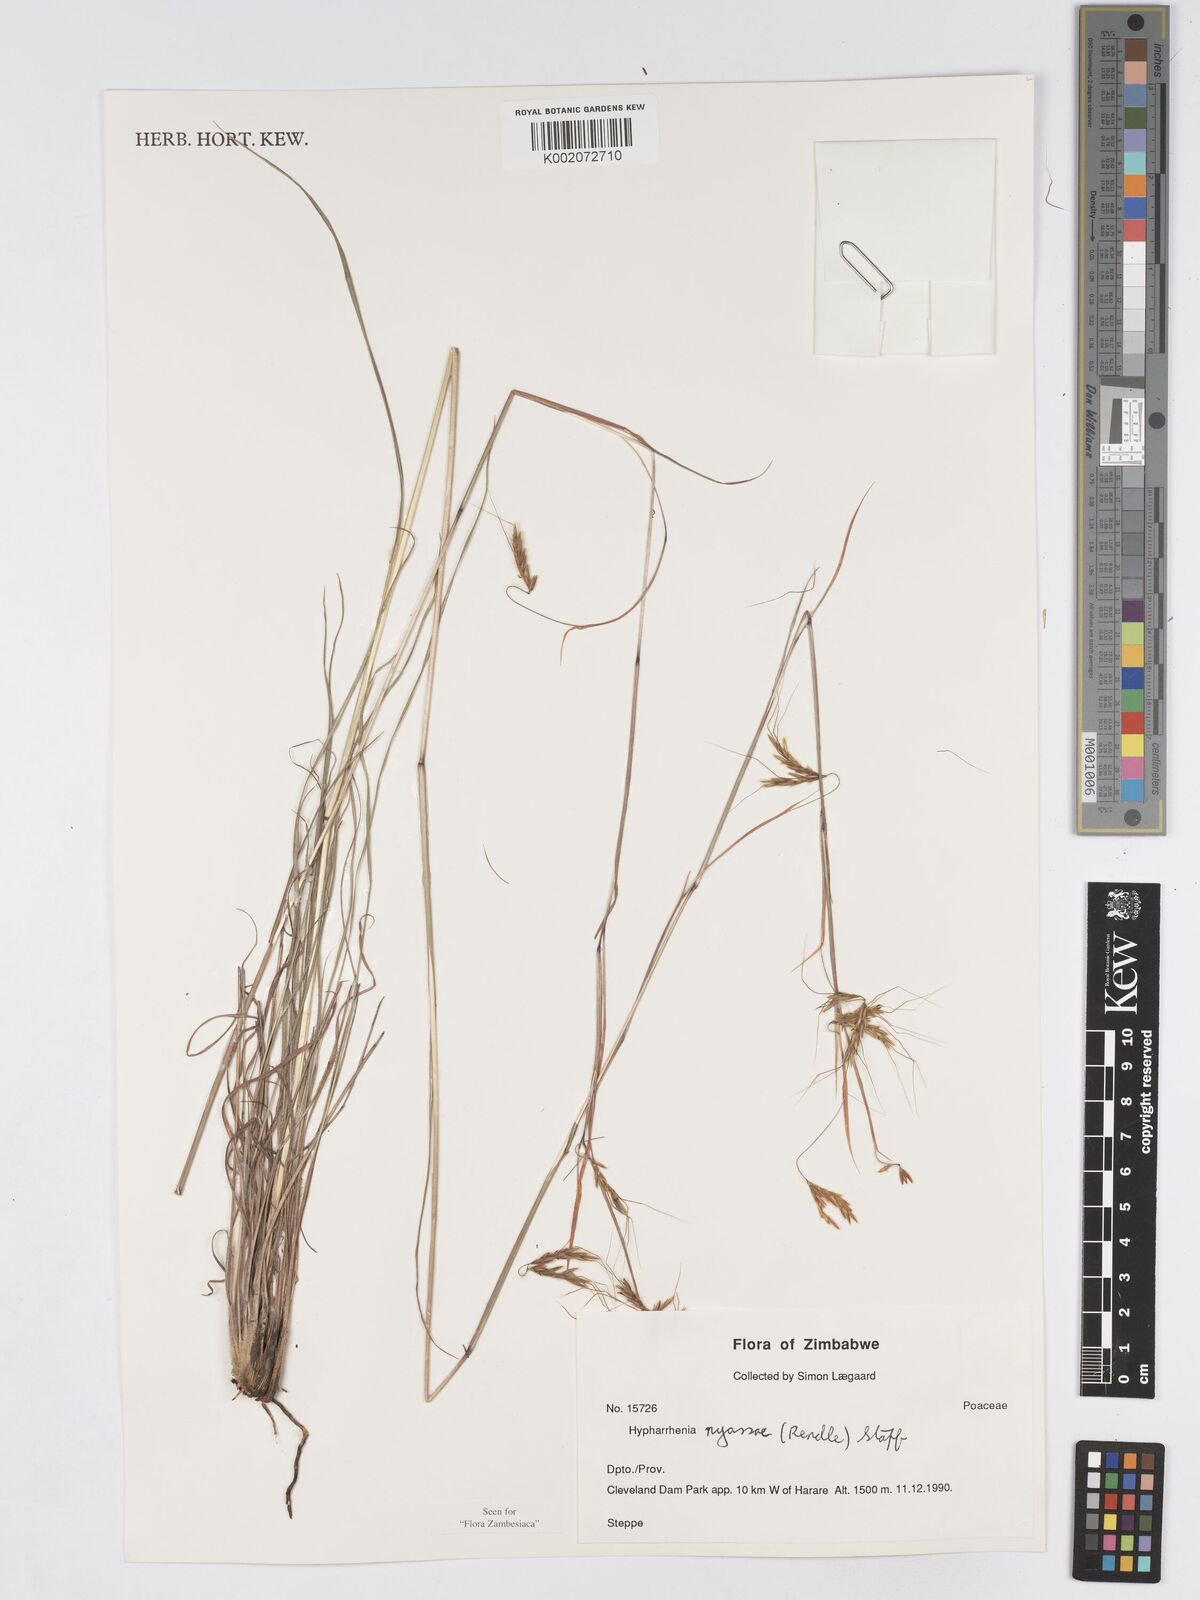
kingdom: Plantae
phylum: Tracheophyta
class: Liliopsida
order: Poales
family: Poaceae
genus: Hyparrhenia
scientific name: Hyparrhenia nyassae
